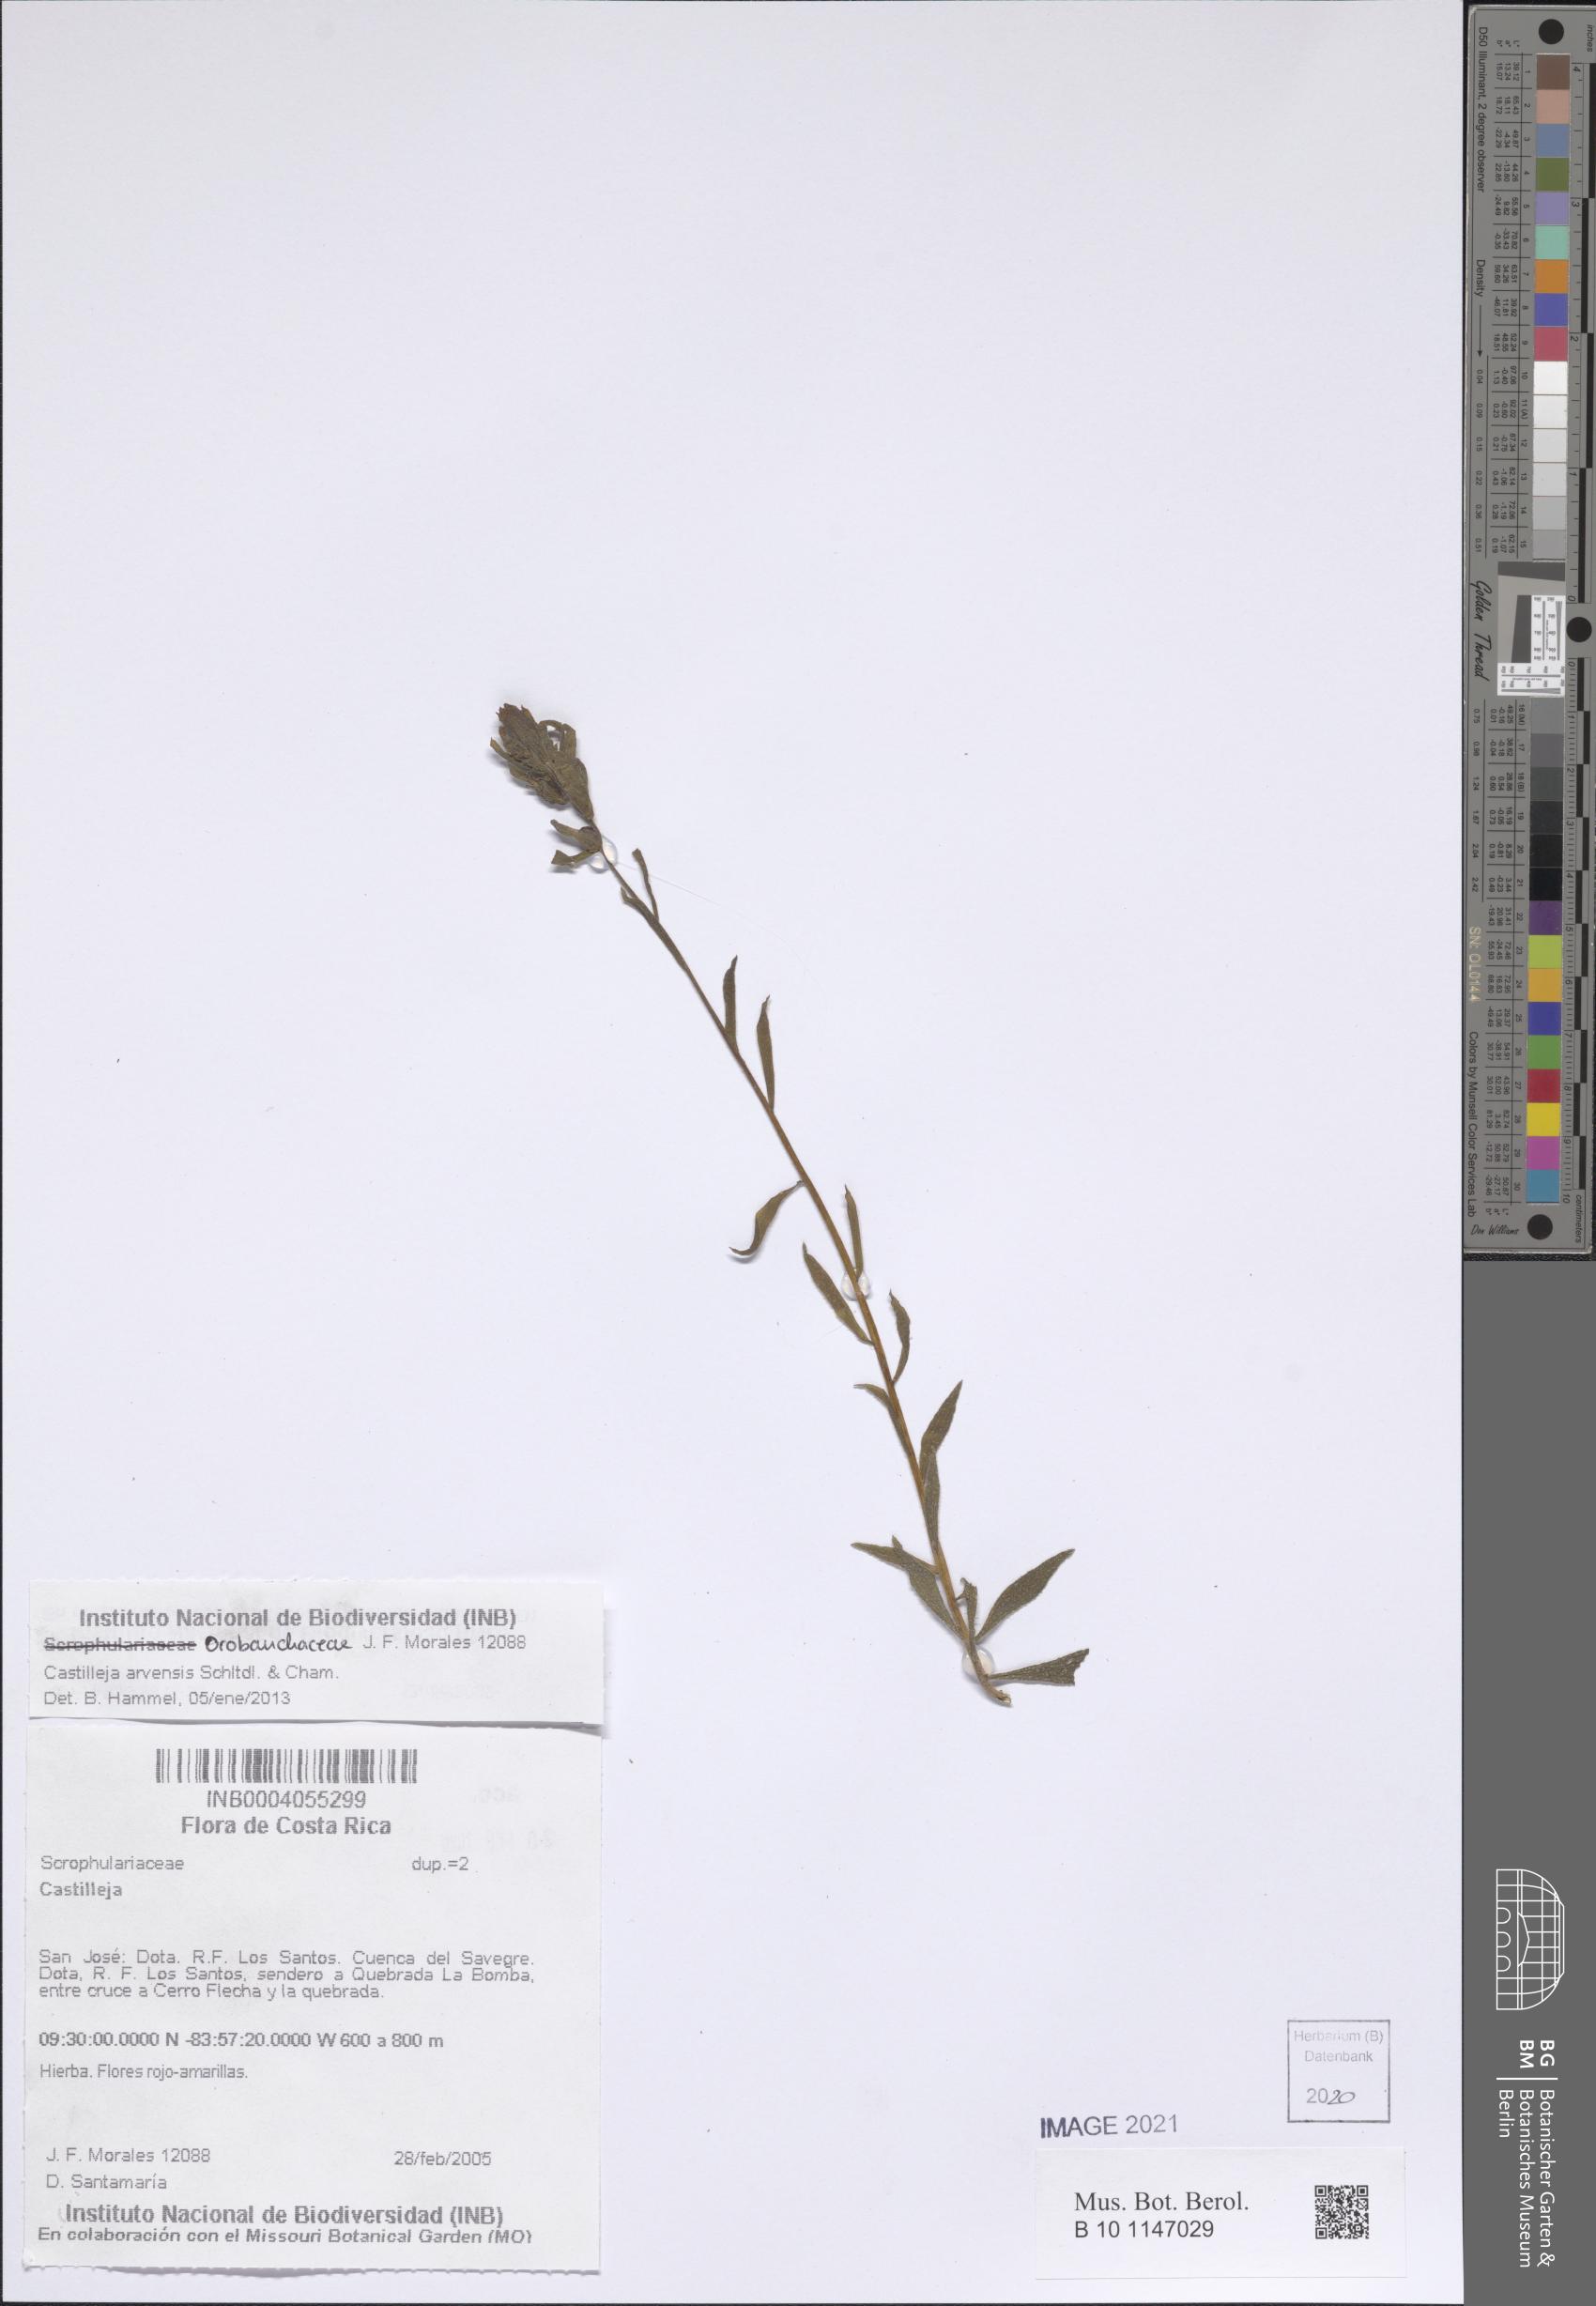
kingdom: Plantae
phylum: Tracheophyta
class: Magnoliopsida
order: Lamiales
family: Orobanchaceae
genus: Castilleja
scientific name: Castilleja arvensis
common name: Indian paintbrush
